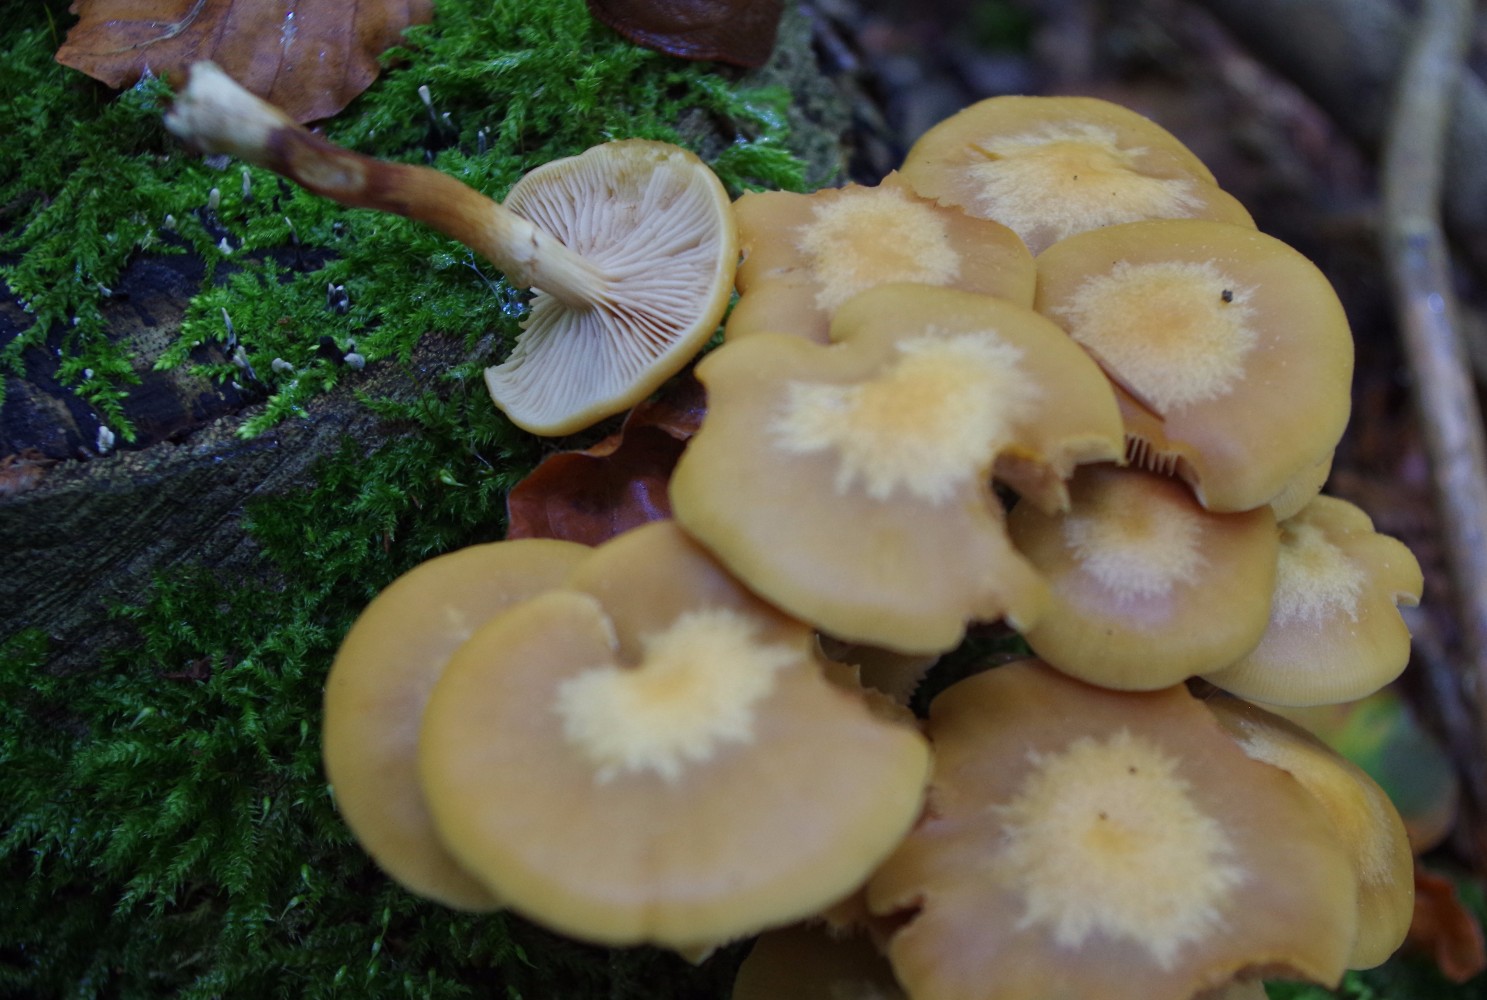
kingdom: Fungi
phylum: Basidiomycota
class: Agaricomycetes
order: Agaricales
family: Strophariaceae
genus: Kuehneromyces
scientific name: Kuehneromyces mutabilis
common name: foranderlig skælhat
